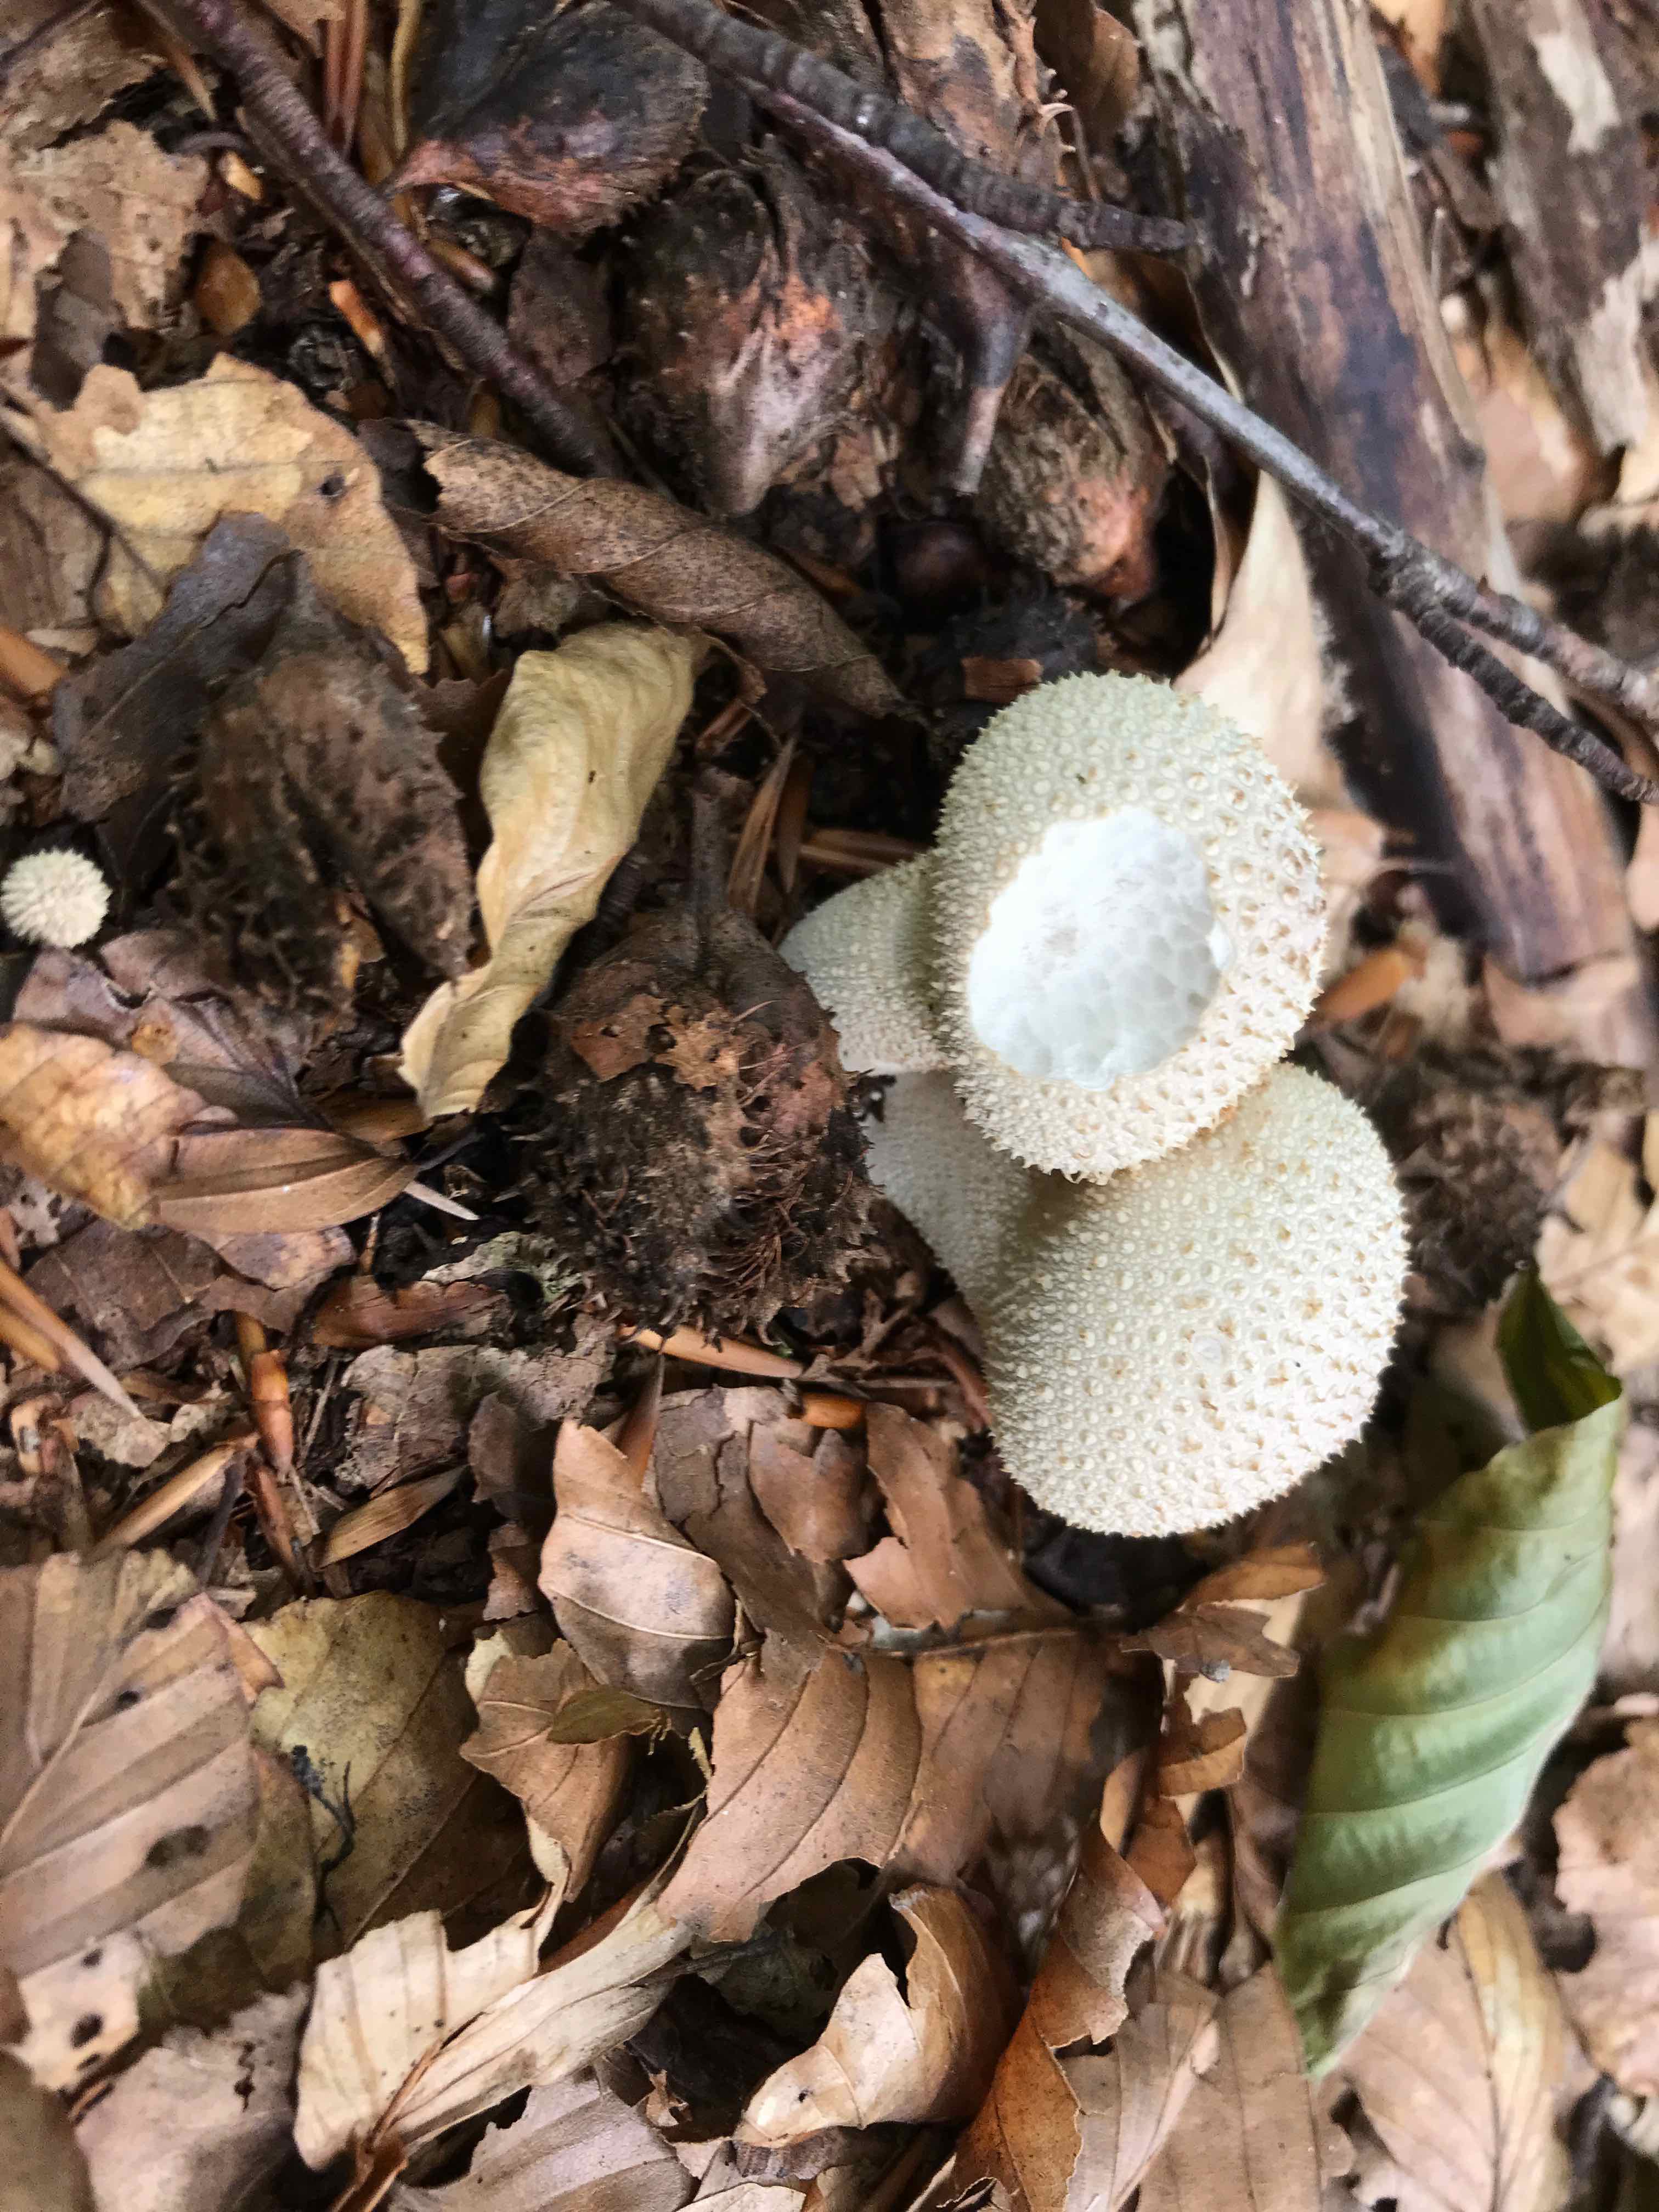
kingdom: Fungi
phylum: Basidiomycota
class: Agaricomycetes
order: Agaricales
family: Lycoperdaceae
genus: Lycoperdon
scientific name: Lycoperdon perlatum
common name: krystal-støvbold
